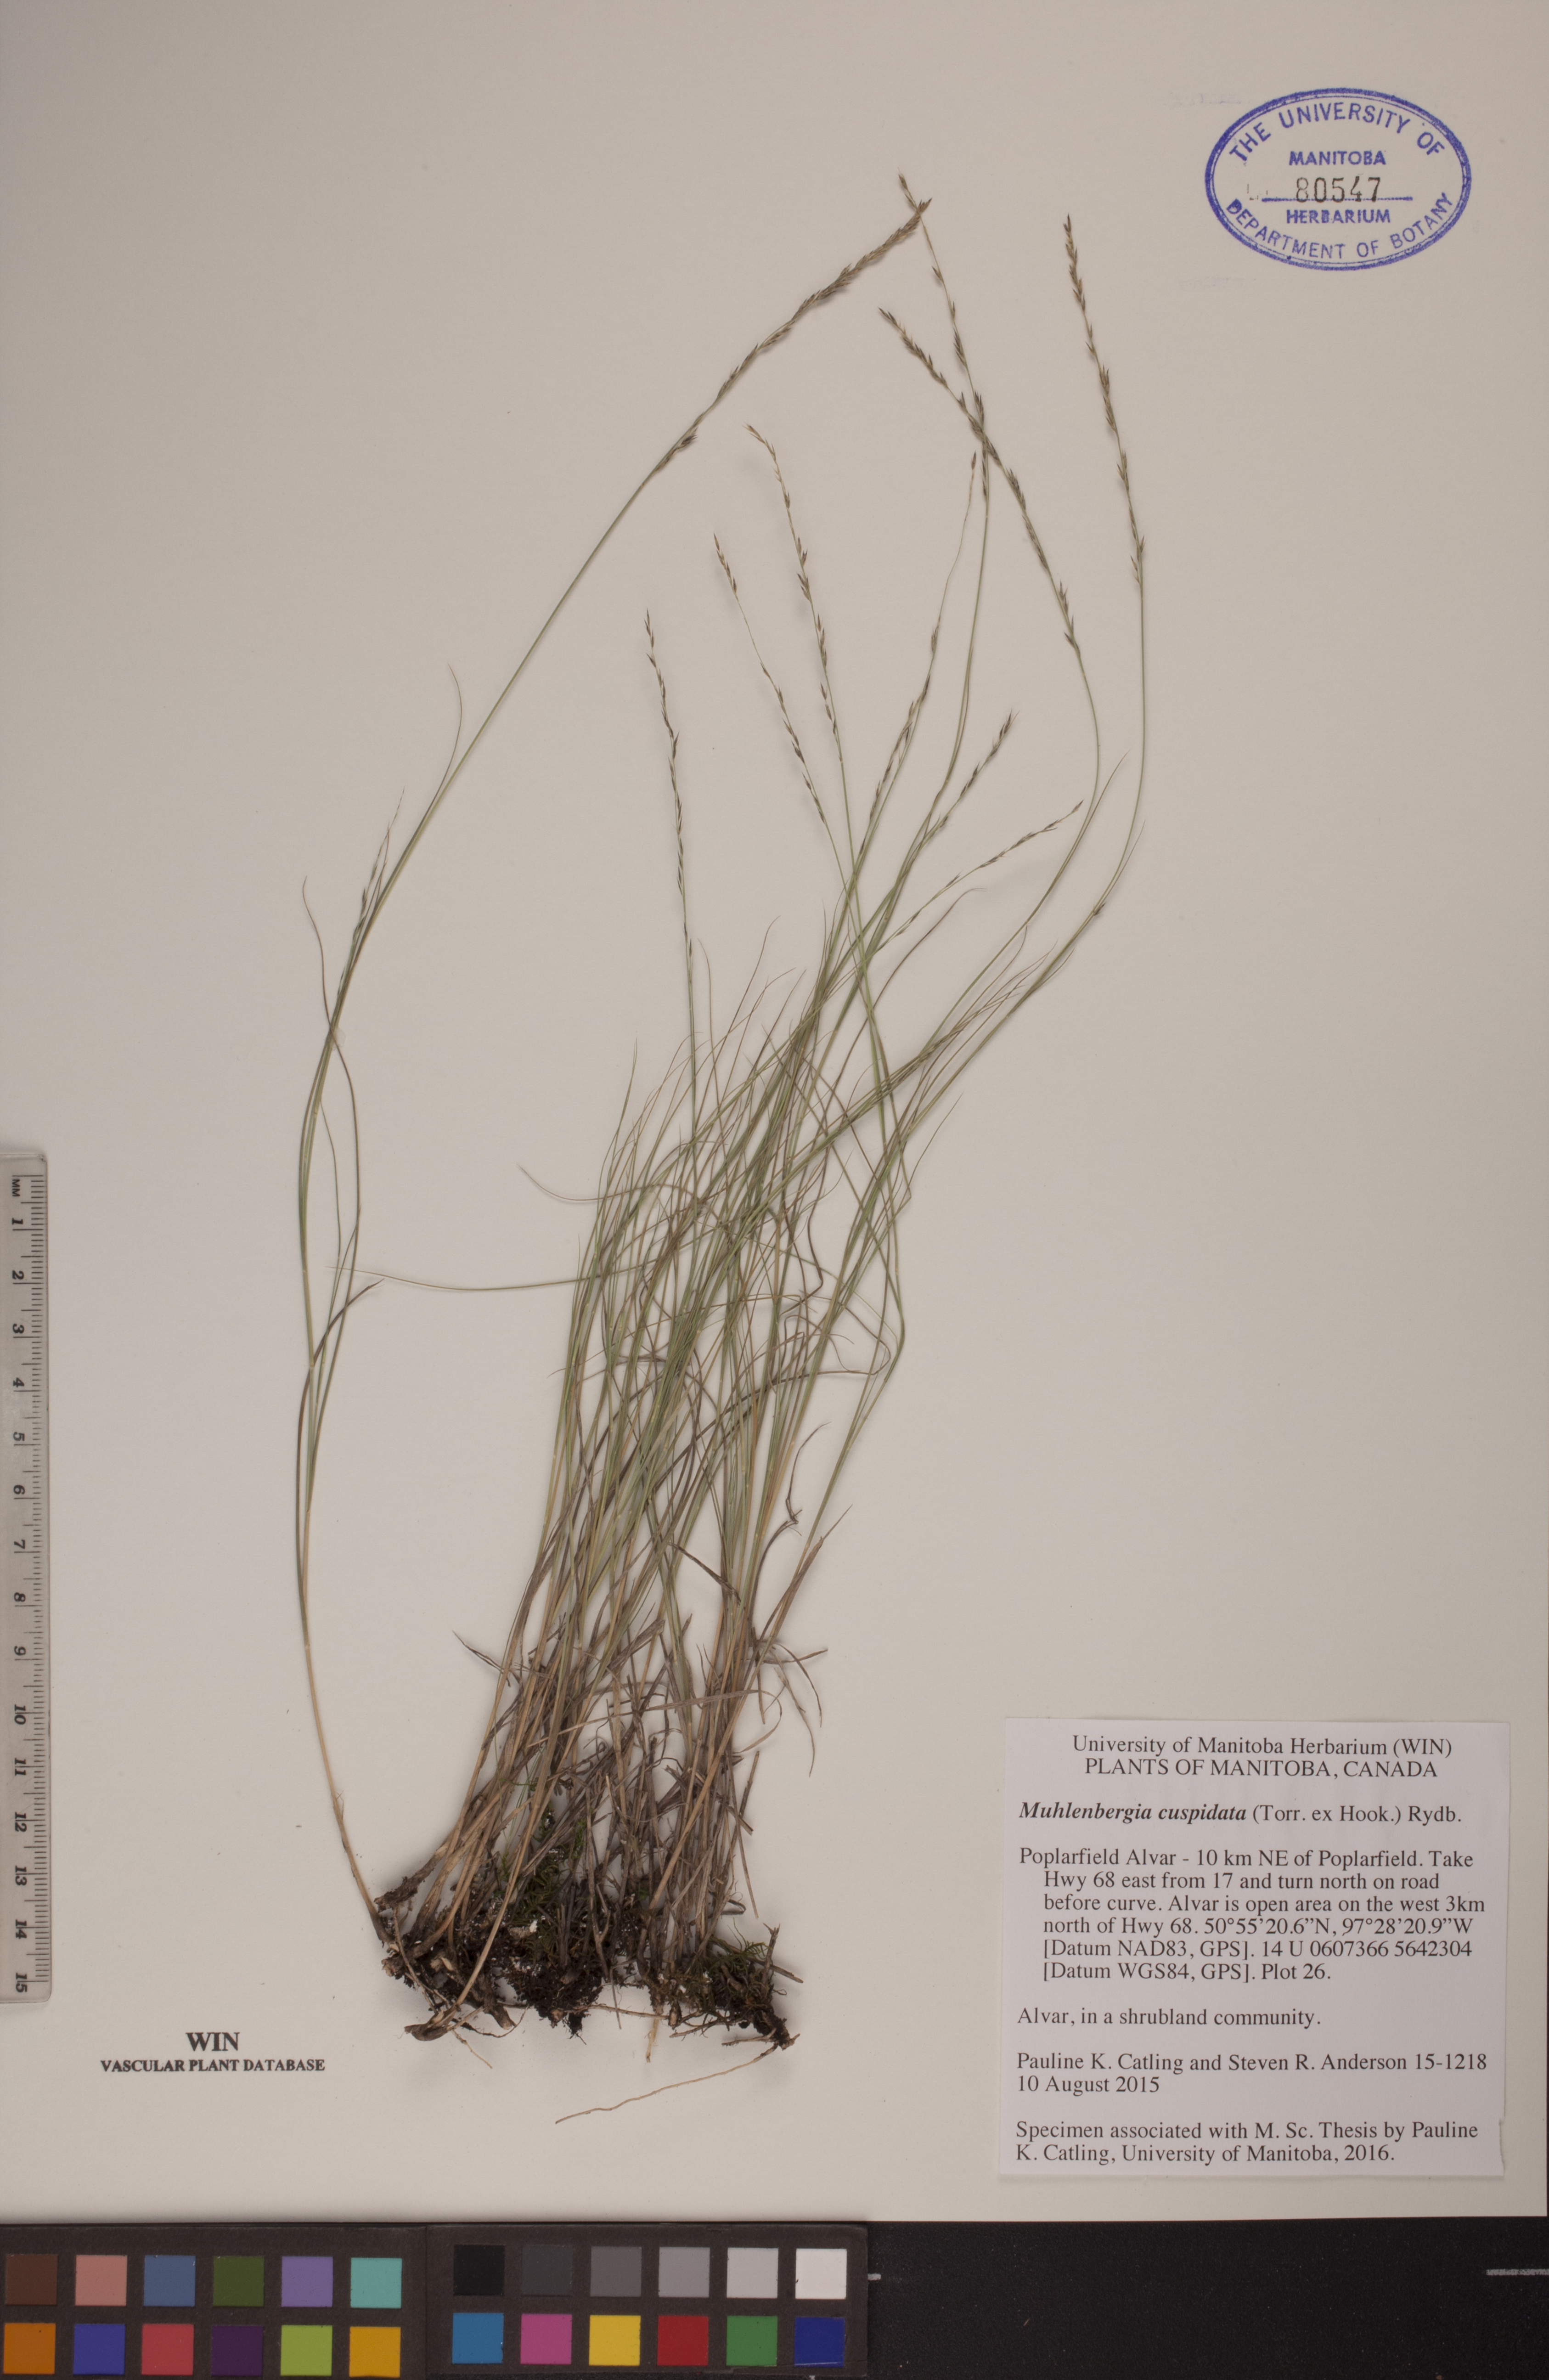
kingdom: Plantae
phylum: Tracheophyta
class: Liliopsida
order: Poales
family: Poaceae
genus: Muhlenbergia
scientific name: Muhlenbergia cuspidata
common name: Plains muhly
